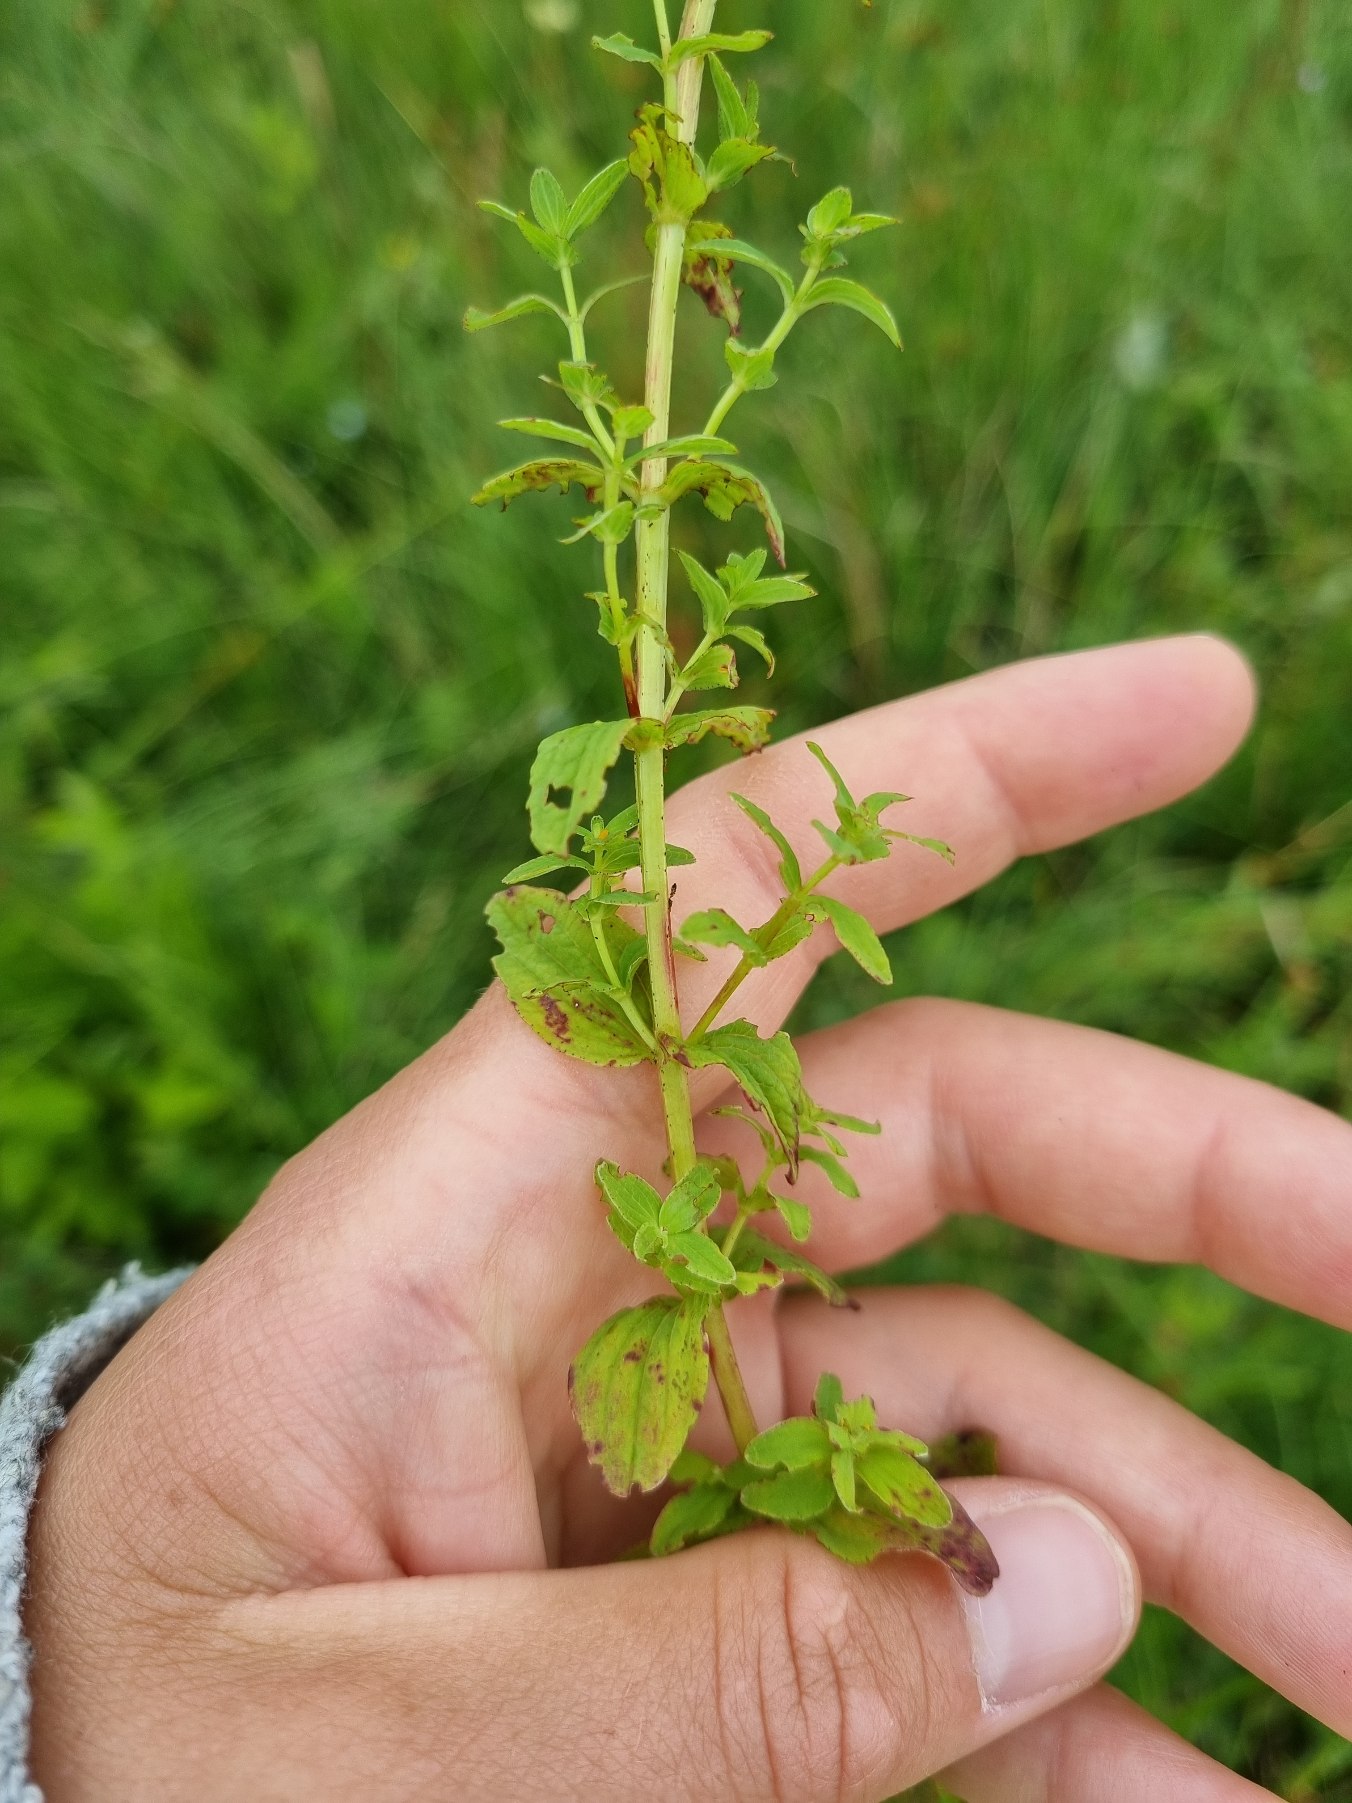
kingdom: Plantae
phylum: Tracheophyta
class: Magnoliopsida
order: Malpighiales
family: Hypericaceae
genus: Hypericum
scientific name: Hypericum maculatum
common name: Kantet perikon
